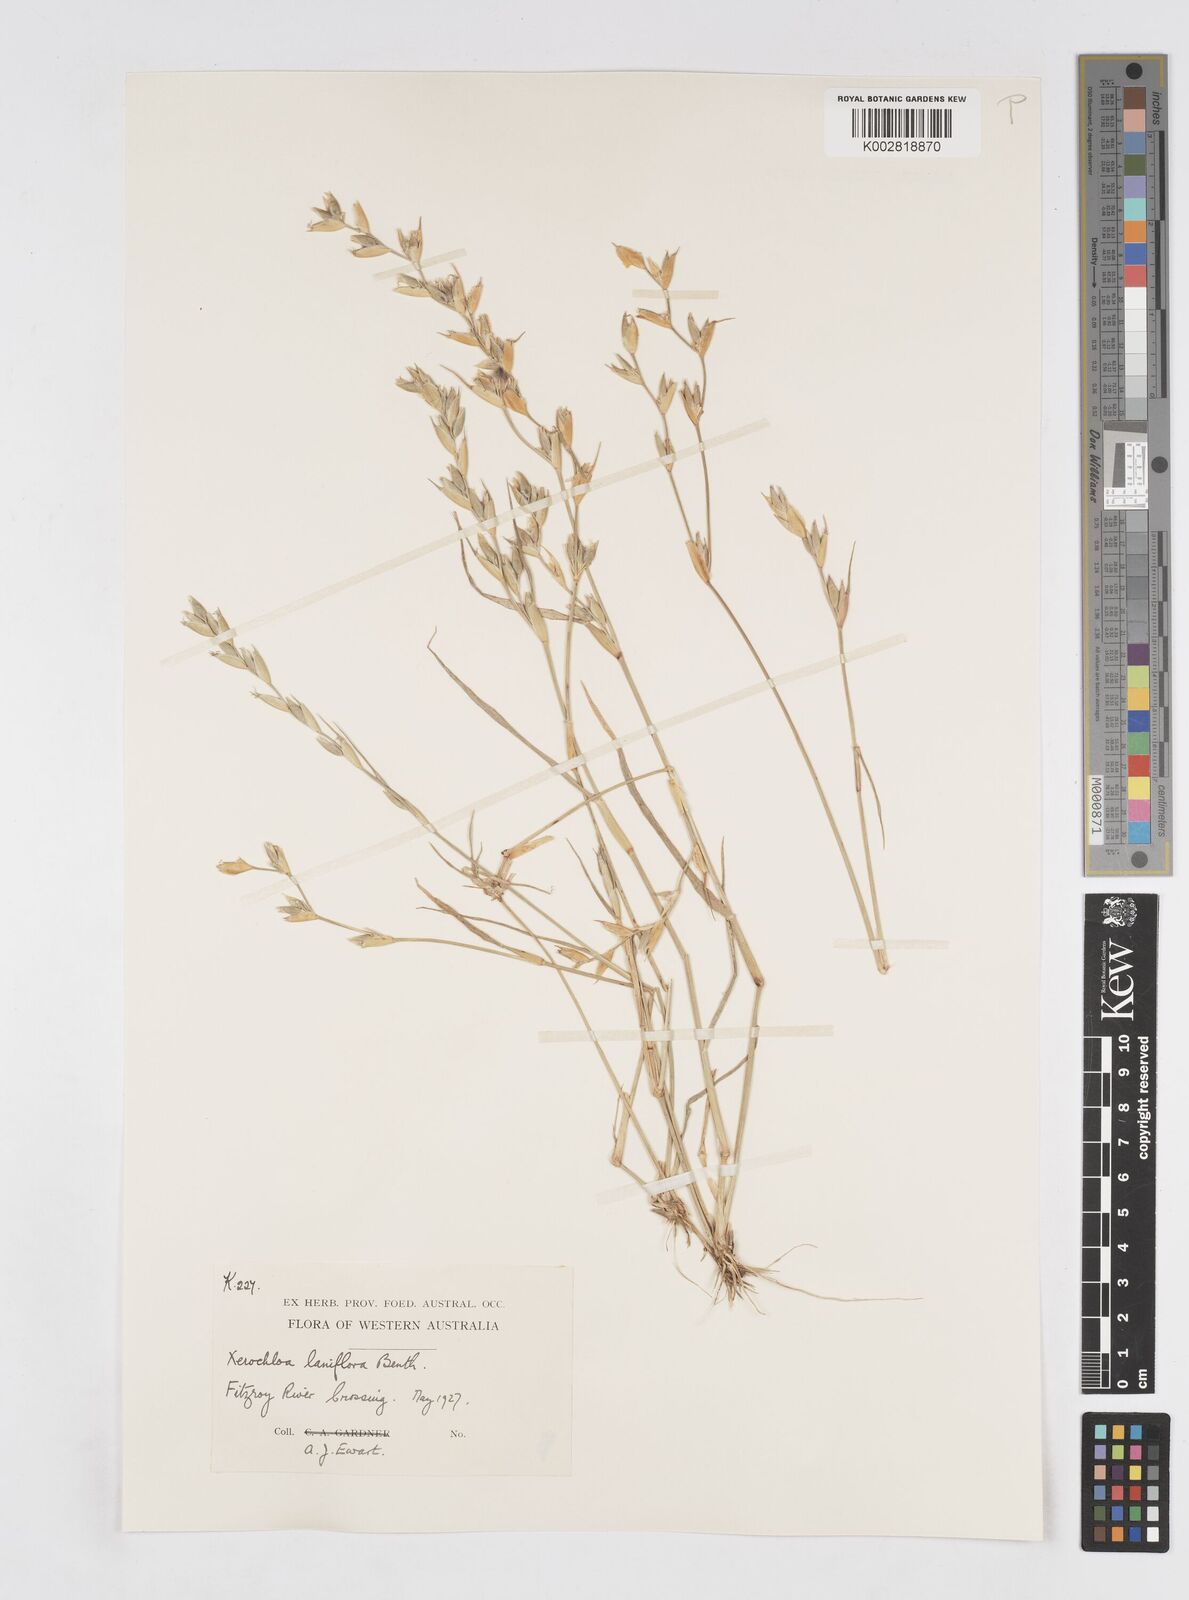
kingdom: Plantae
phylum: Tracheophyta
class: Liliopsida
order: Poales
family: Poaceae
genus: Xerochloa
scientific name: Xerochloa laniflora
